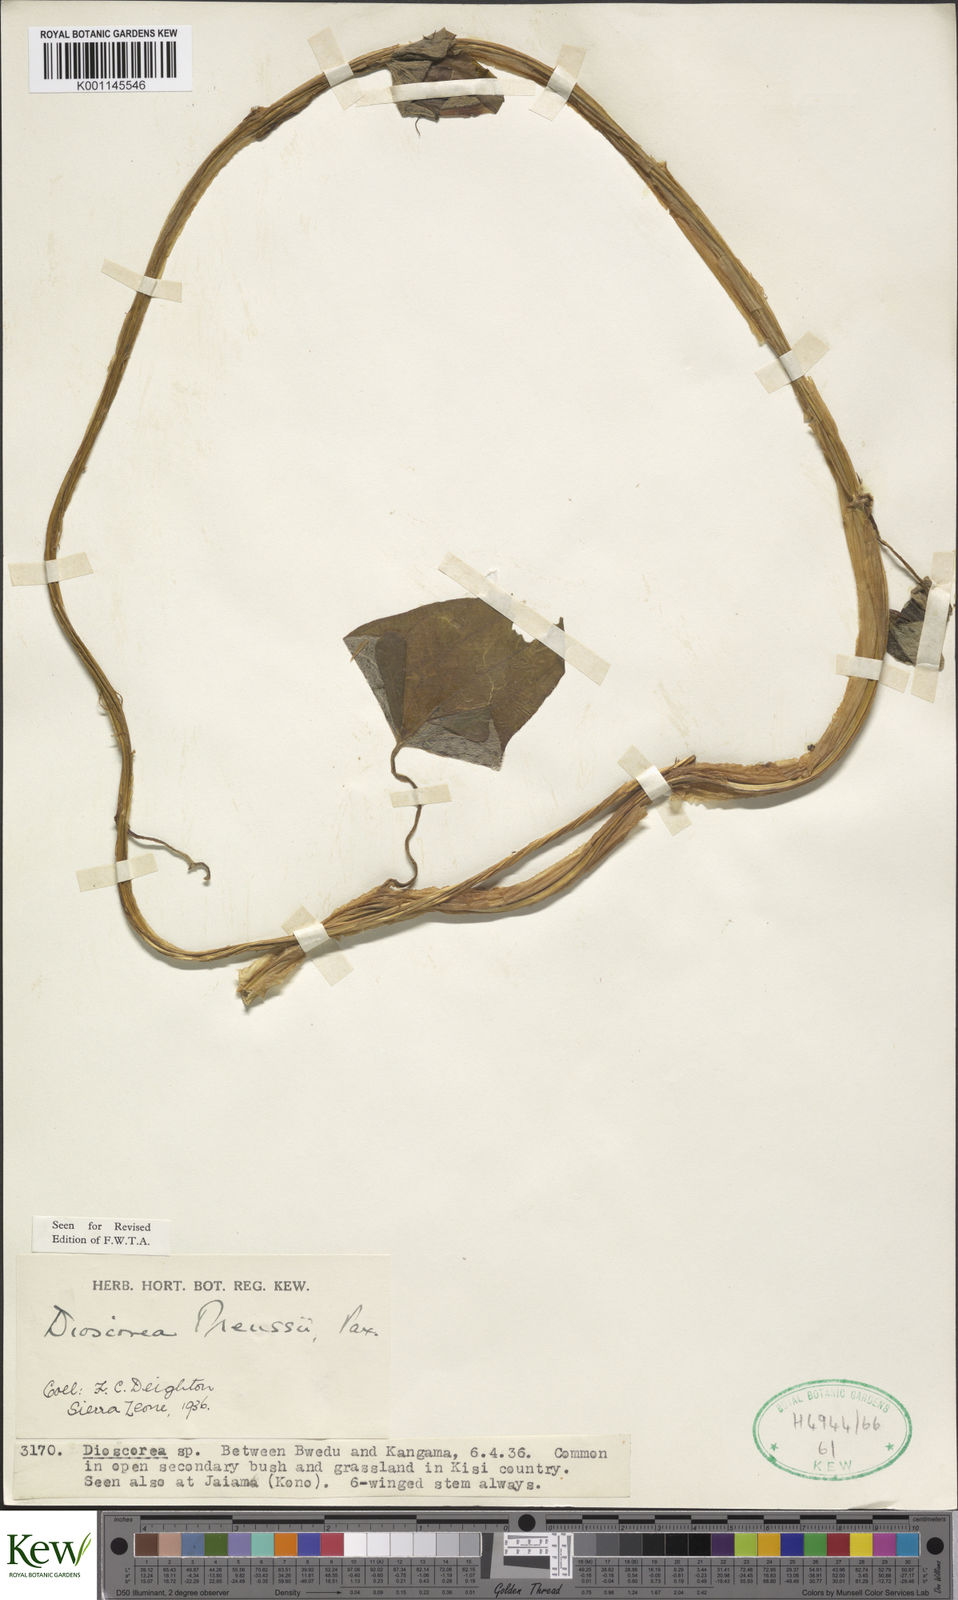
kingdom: Plantae
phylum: Tracheophyta
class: Liliopsida
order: Dioscoreales
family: Dioscoreaceae
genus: Dioscorea
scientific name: Dioscorea preussii
